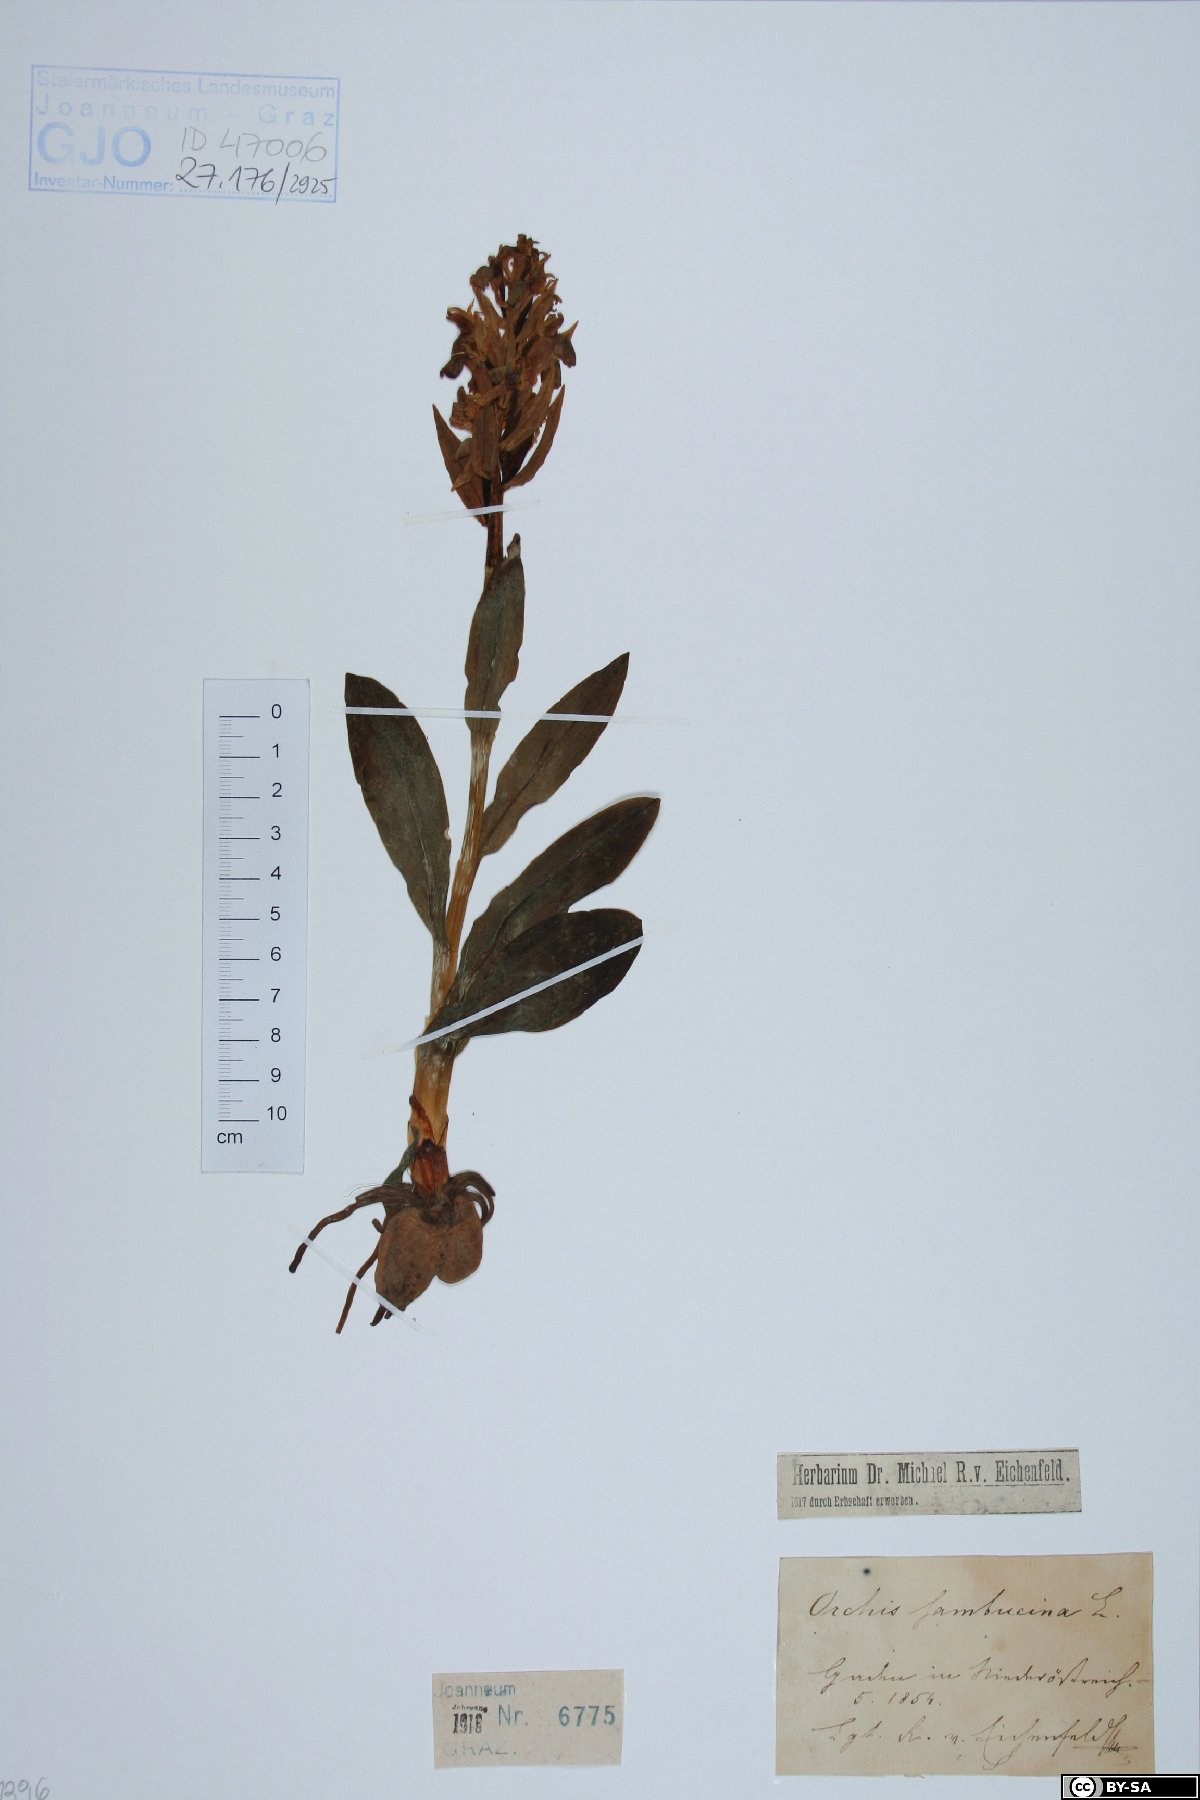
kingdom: Plantae
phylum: Tracheophyta
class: Liliopsida
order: Asparagales
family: Orchidaceae
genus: Dactylorhiza
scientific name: Dactylorhiza sambucina
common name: Elder-flowered orchid
